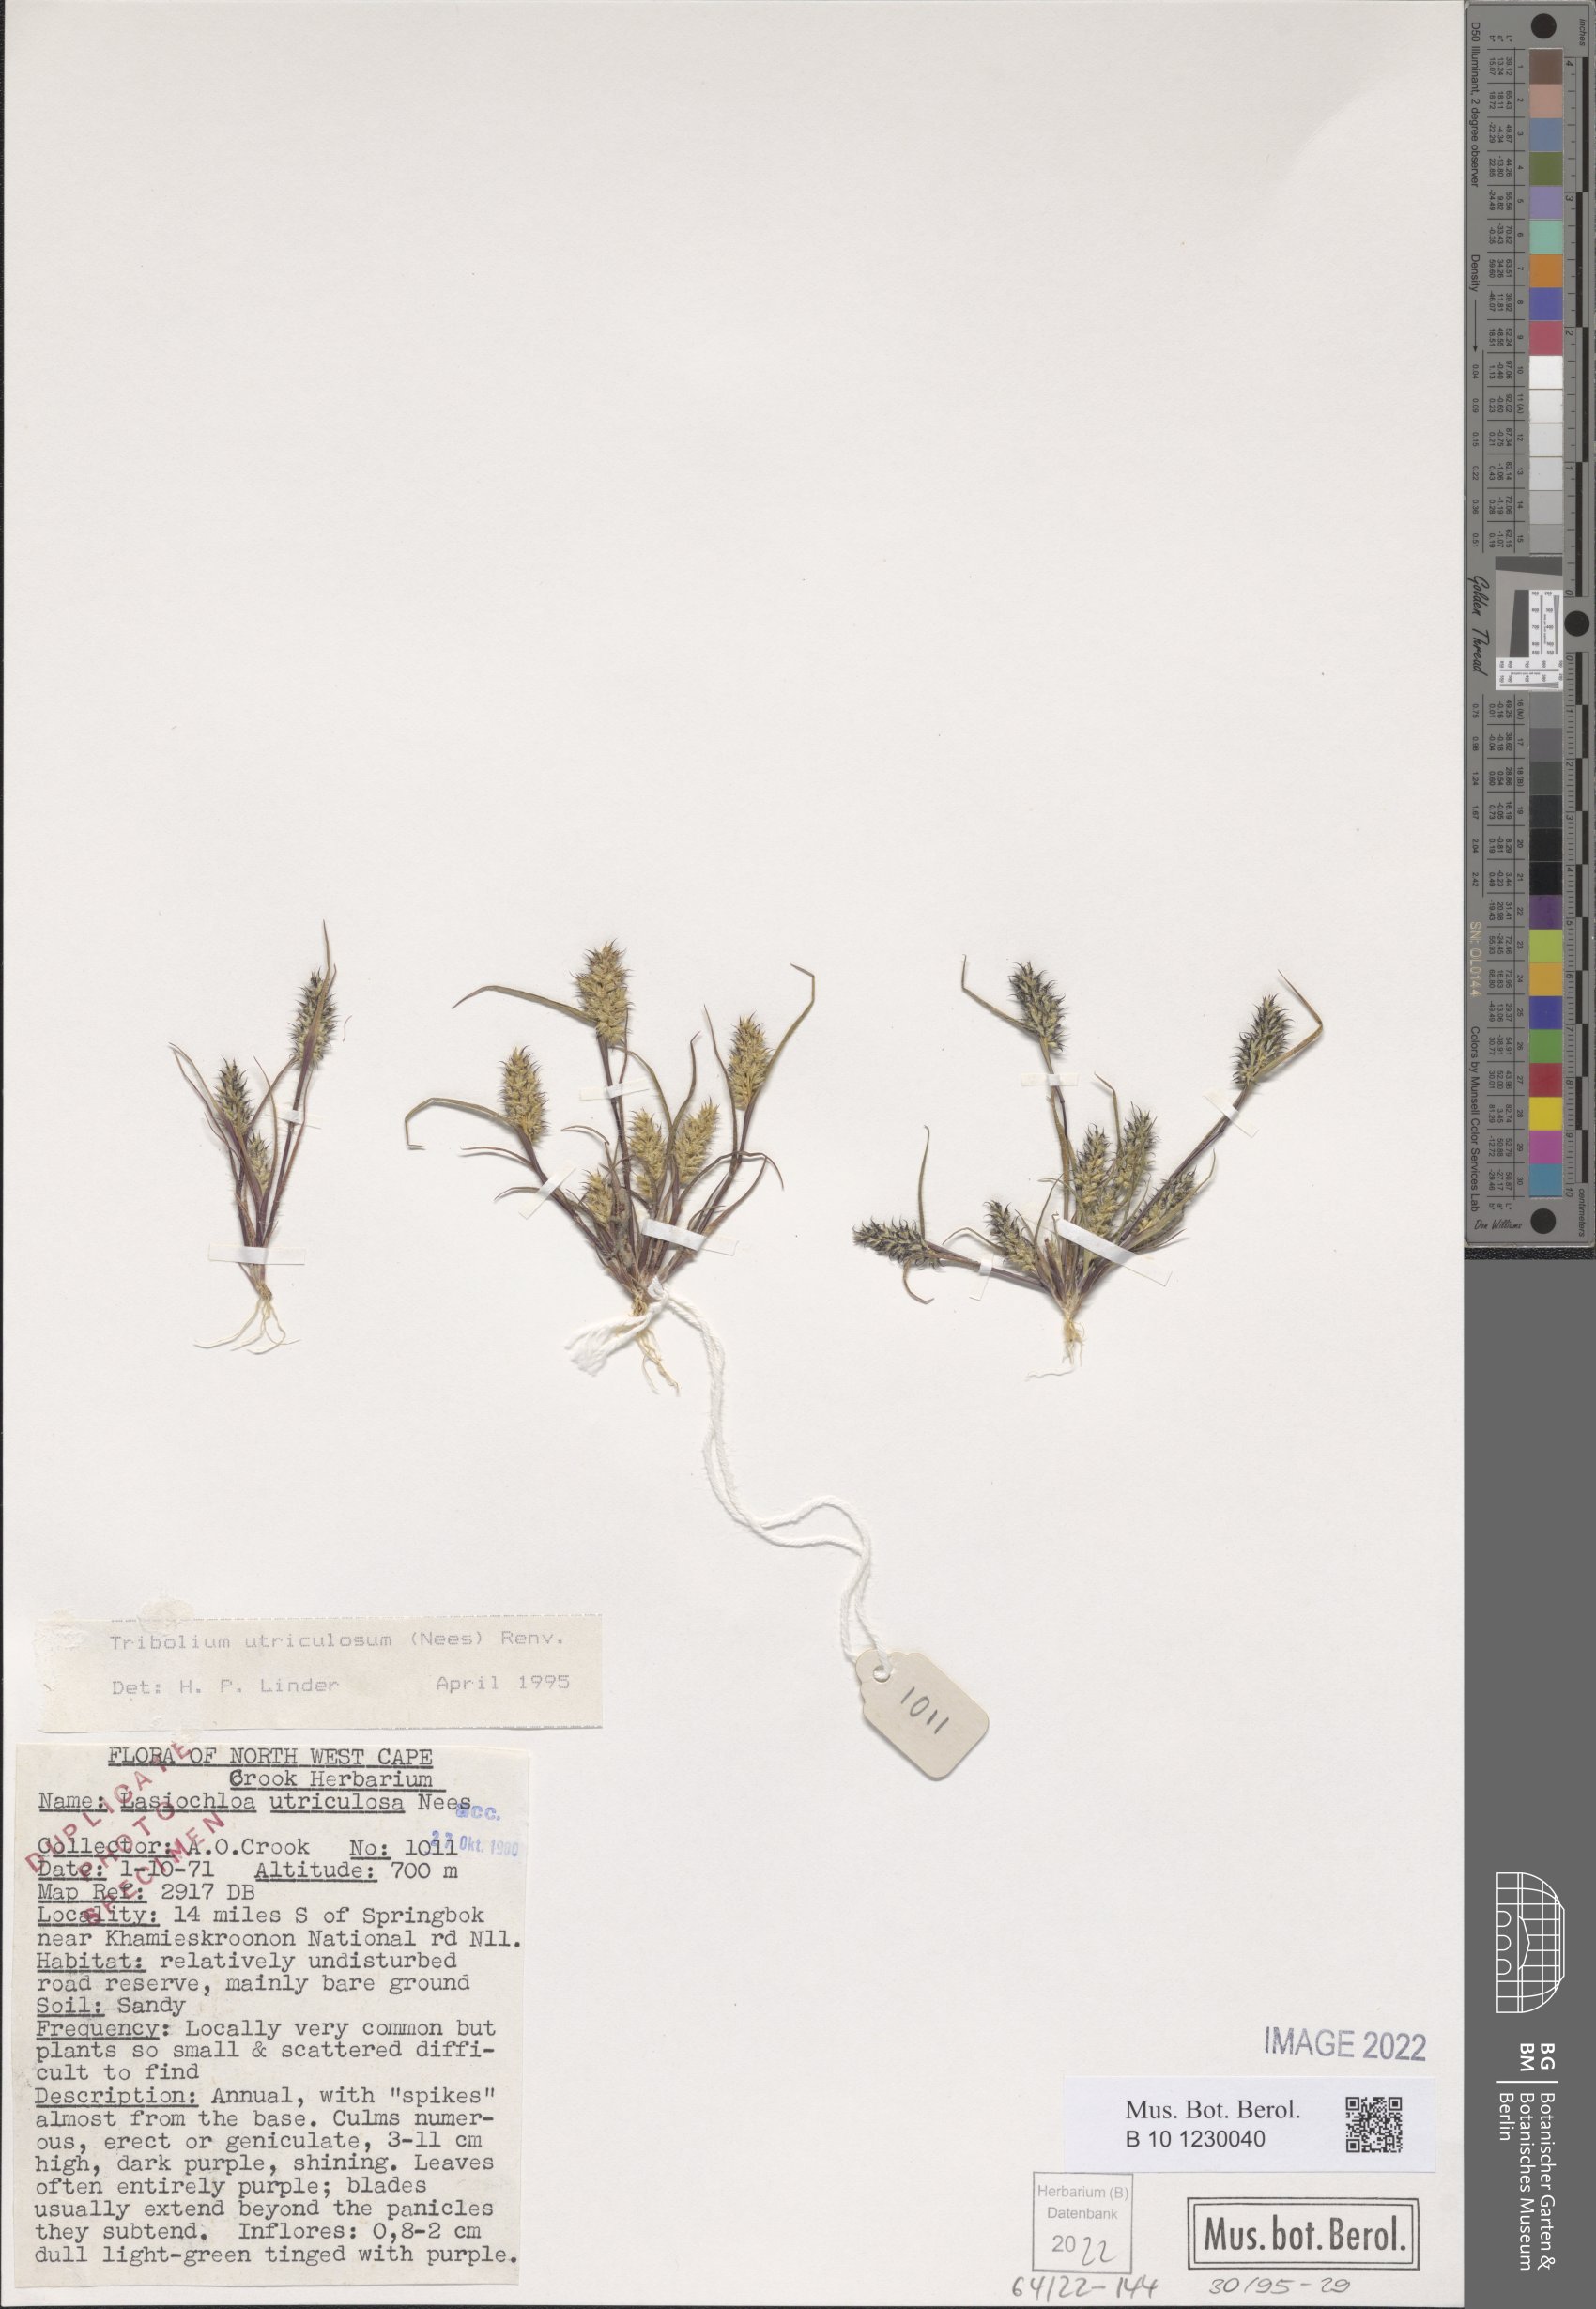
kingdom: Plantae
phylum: Tracheophyta
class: Liliopsida
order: Poales
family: Poaceae
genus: Tribolium
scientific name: Tribolium utriculosum
